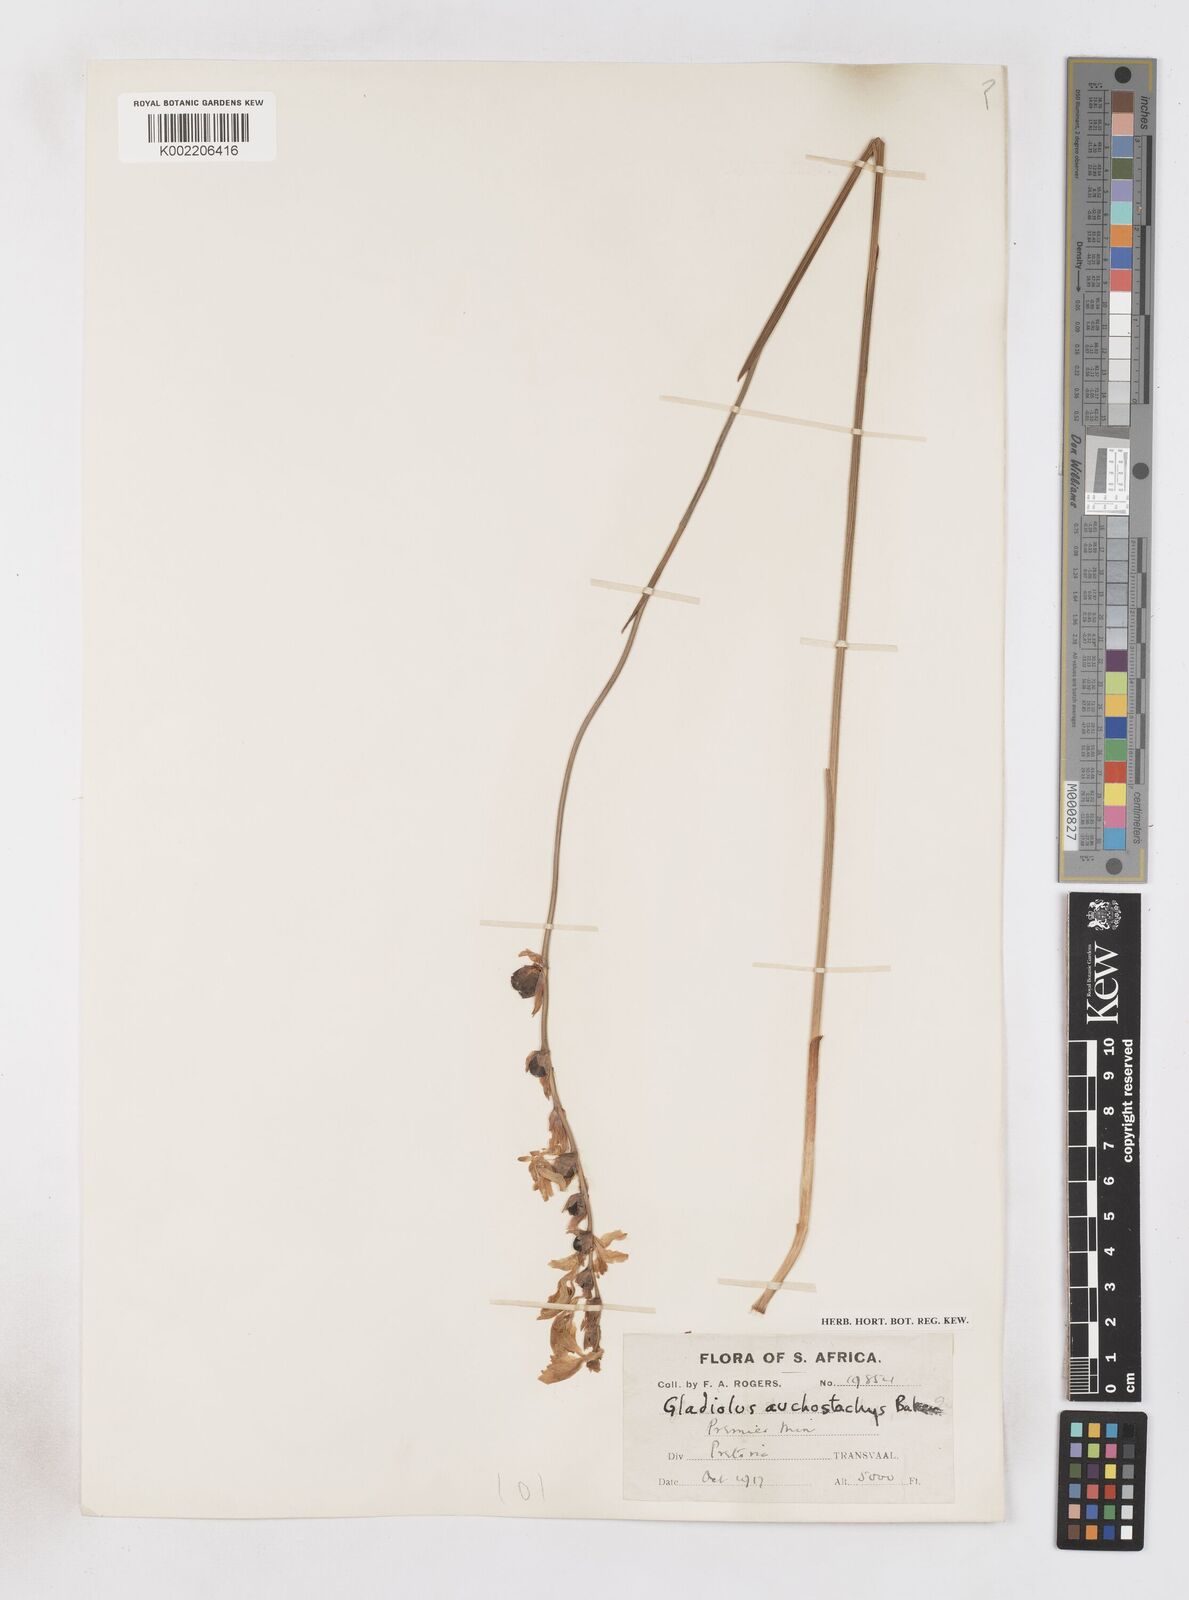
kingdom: Plantae
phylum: Tracheophyta
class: Liliopsida
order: Asparagales
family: Iridaceae
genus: Gladiolus
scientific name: Gladiolus woodii
